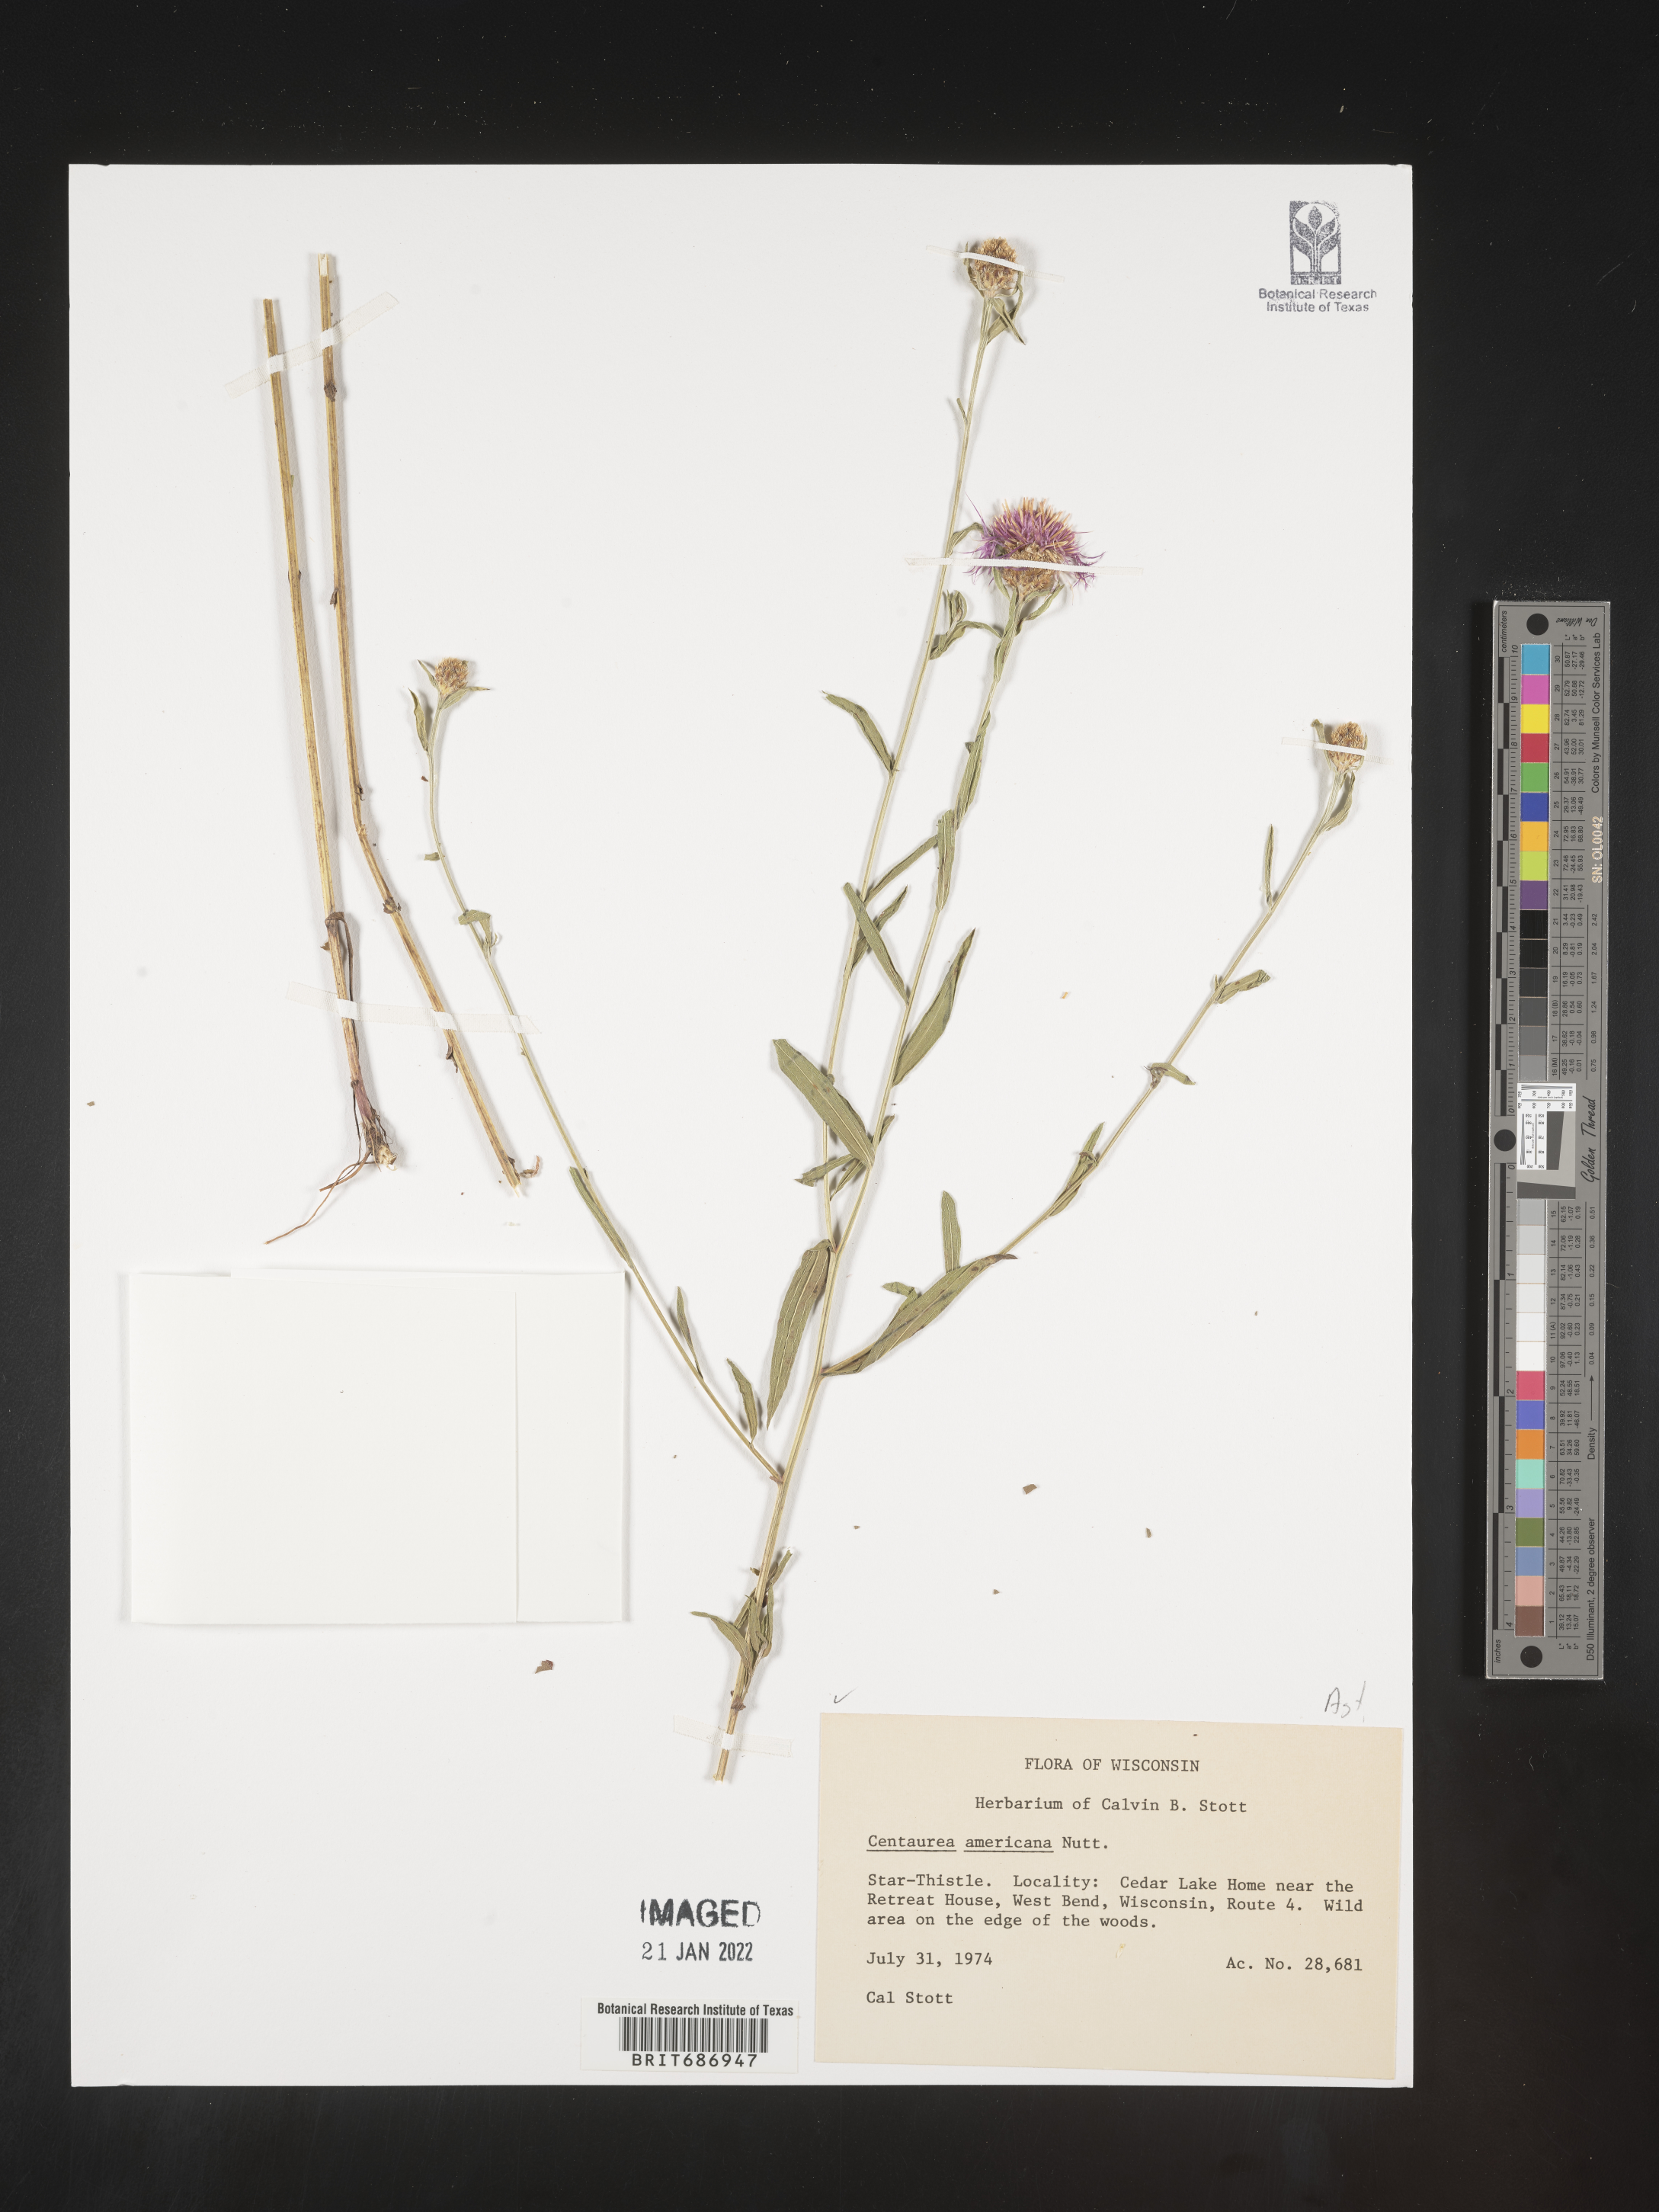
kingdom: Plantae
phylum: Tracheophyta
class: Magnoliopsida
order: Asterales
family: Asteraceae
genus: Plectocephalus
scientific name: Plectocephalus americanus
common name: American basket-flower
